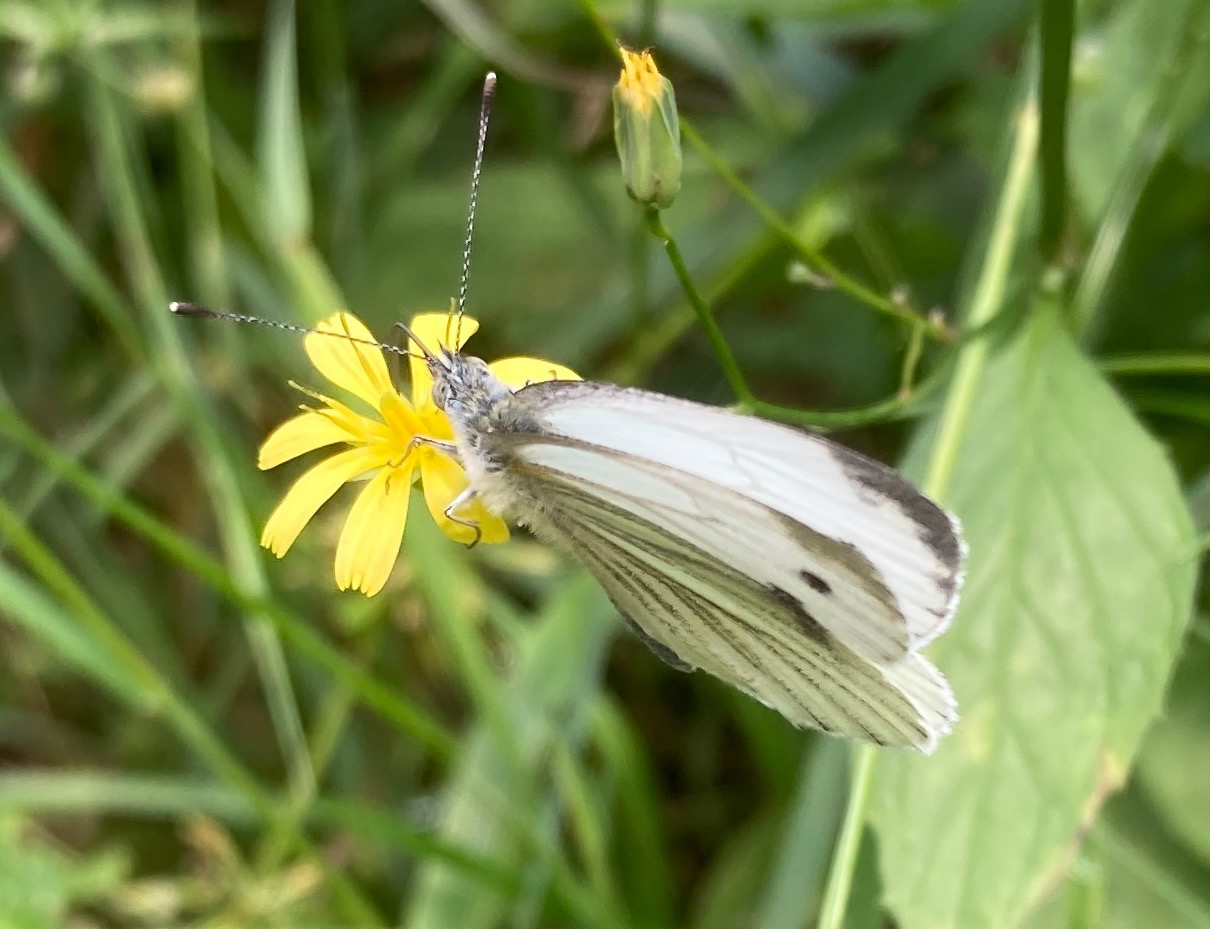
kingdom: Animalia
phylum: Arthropoda
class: Insecta
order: Lepidoptera
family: Pieridae
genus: Pieris
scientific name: Pieris napi
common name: Grønåret kålsommerfugl
